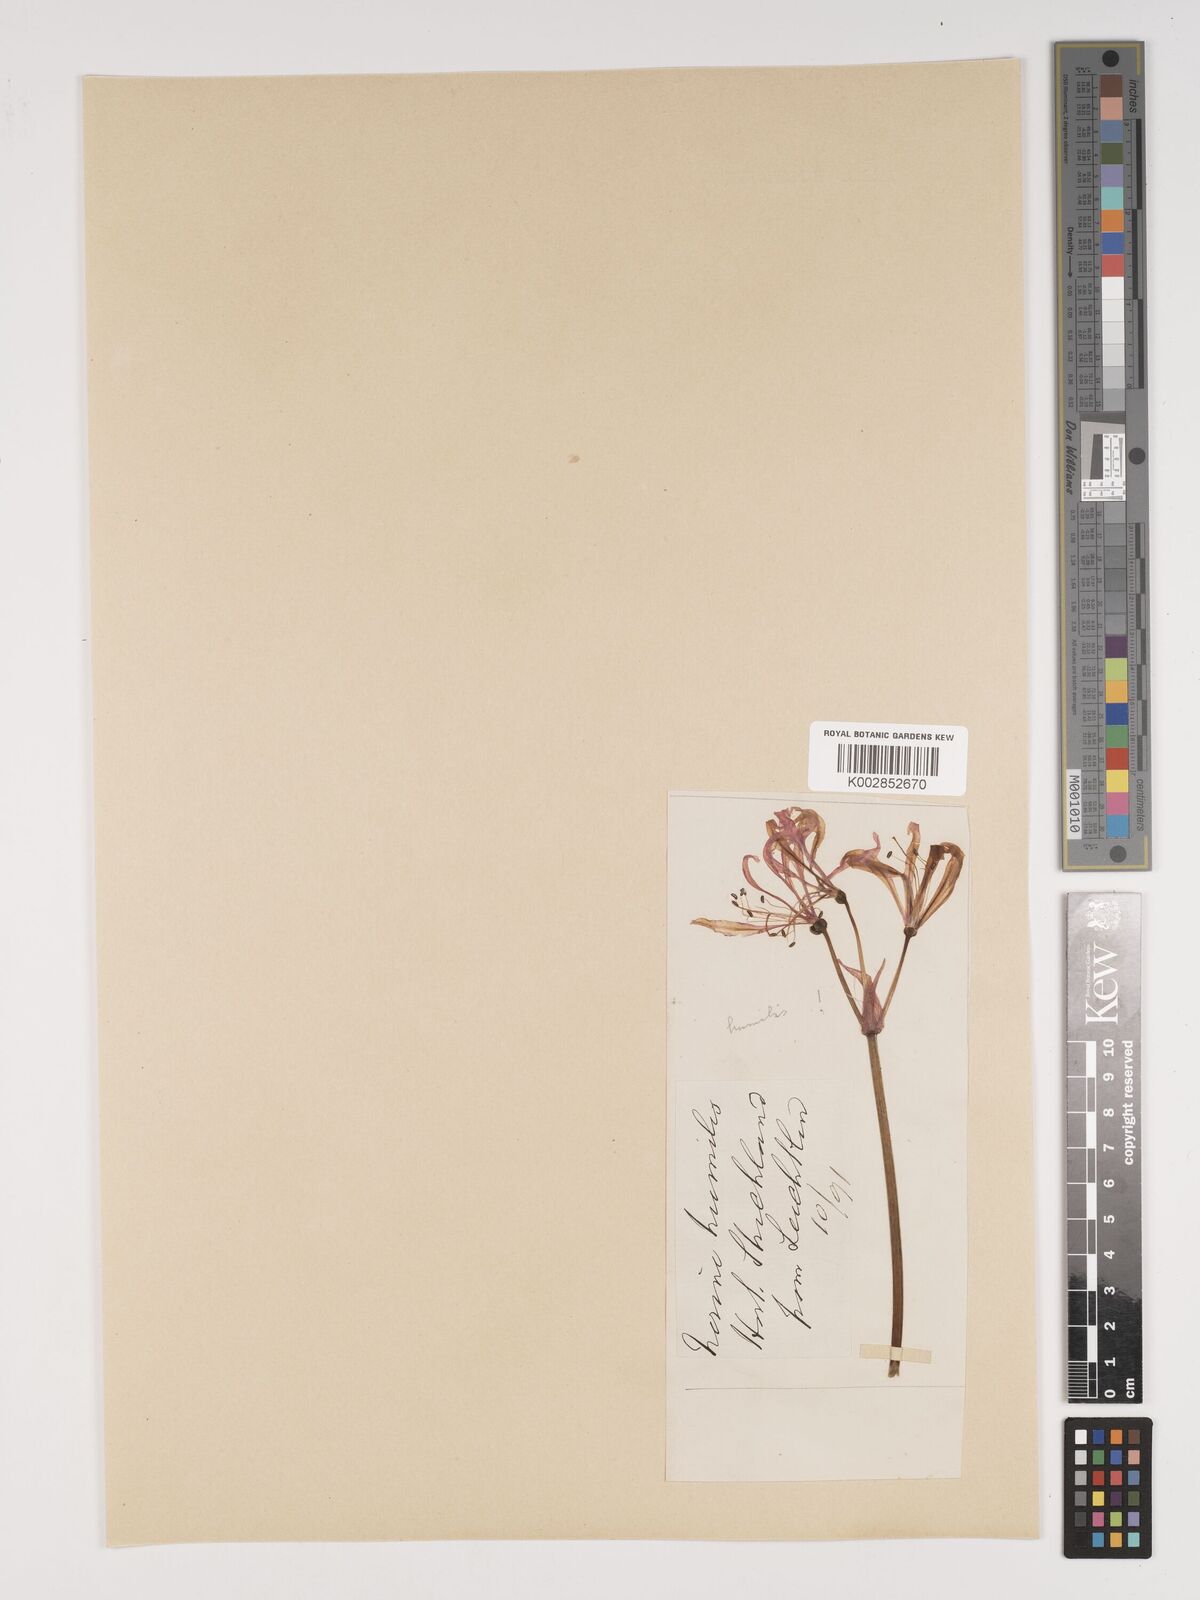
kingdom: Plantae
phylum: Tracheophyta
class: Liliopsida
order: Asparagales
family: Amaryllidaceae
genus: Nerine
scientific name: Nerine humilis
